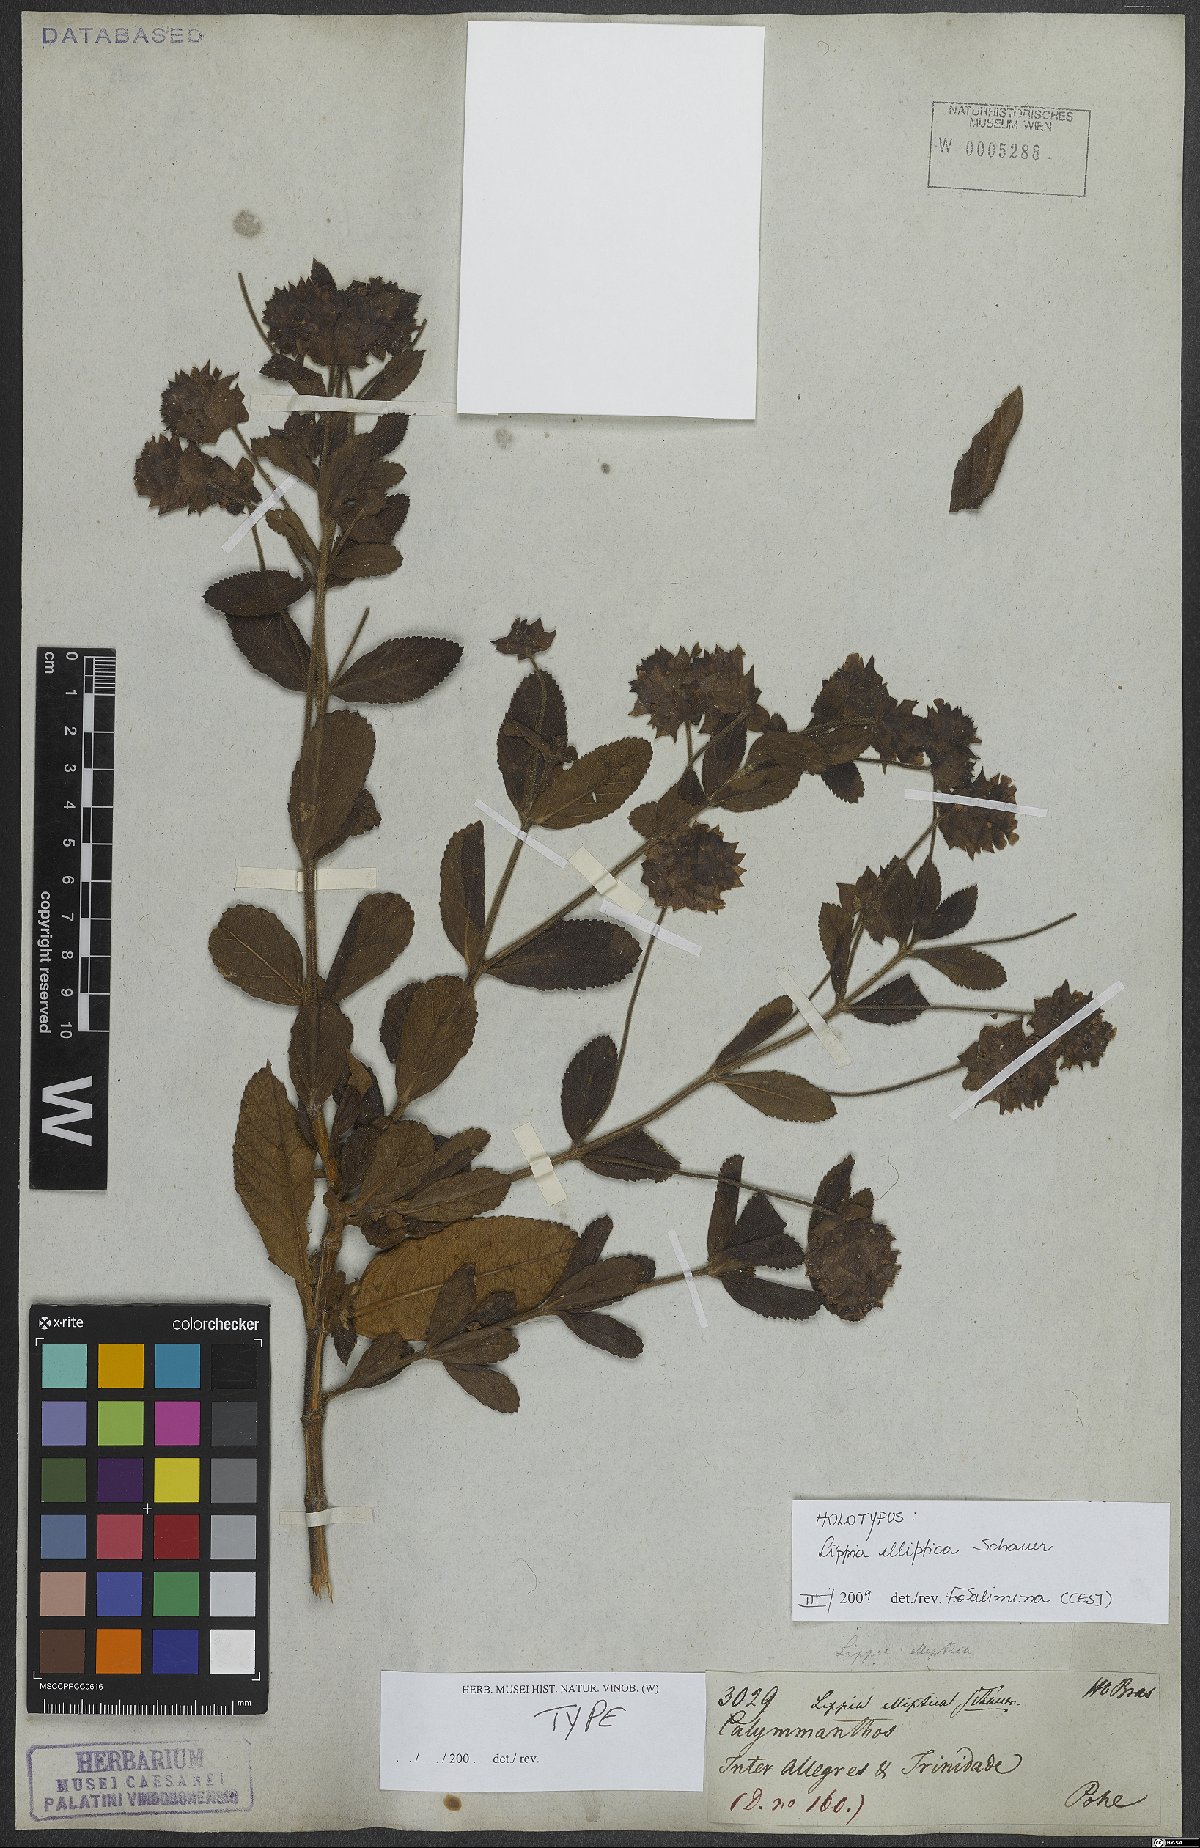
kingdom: Plantae
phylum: Tracheophyta
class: Magnoliopsida
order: Lamiales
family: Verbenaceae
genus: Lippia
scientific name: Lippia elliptica
